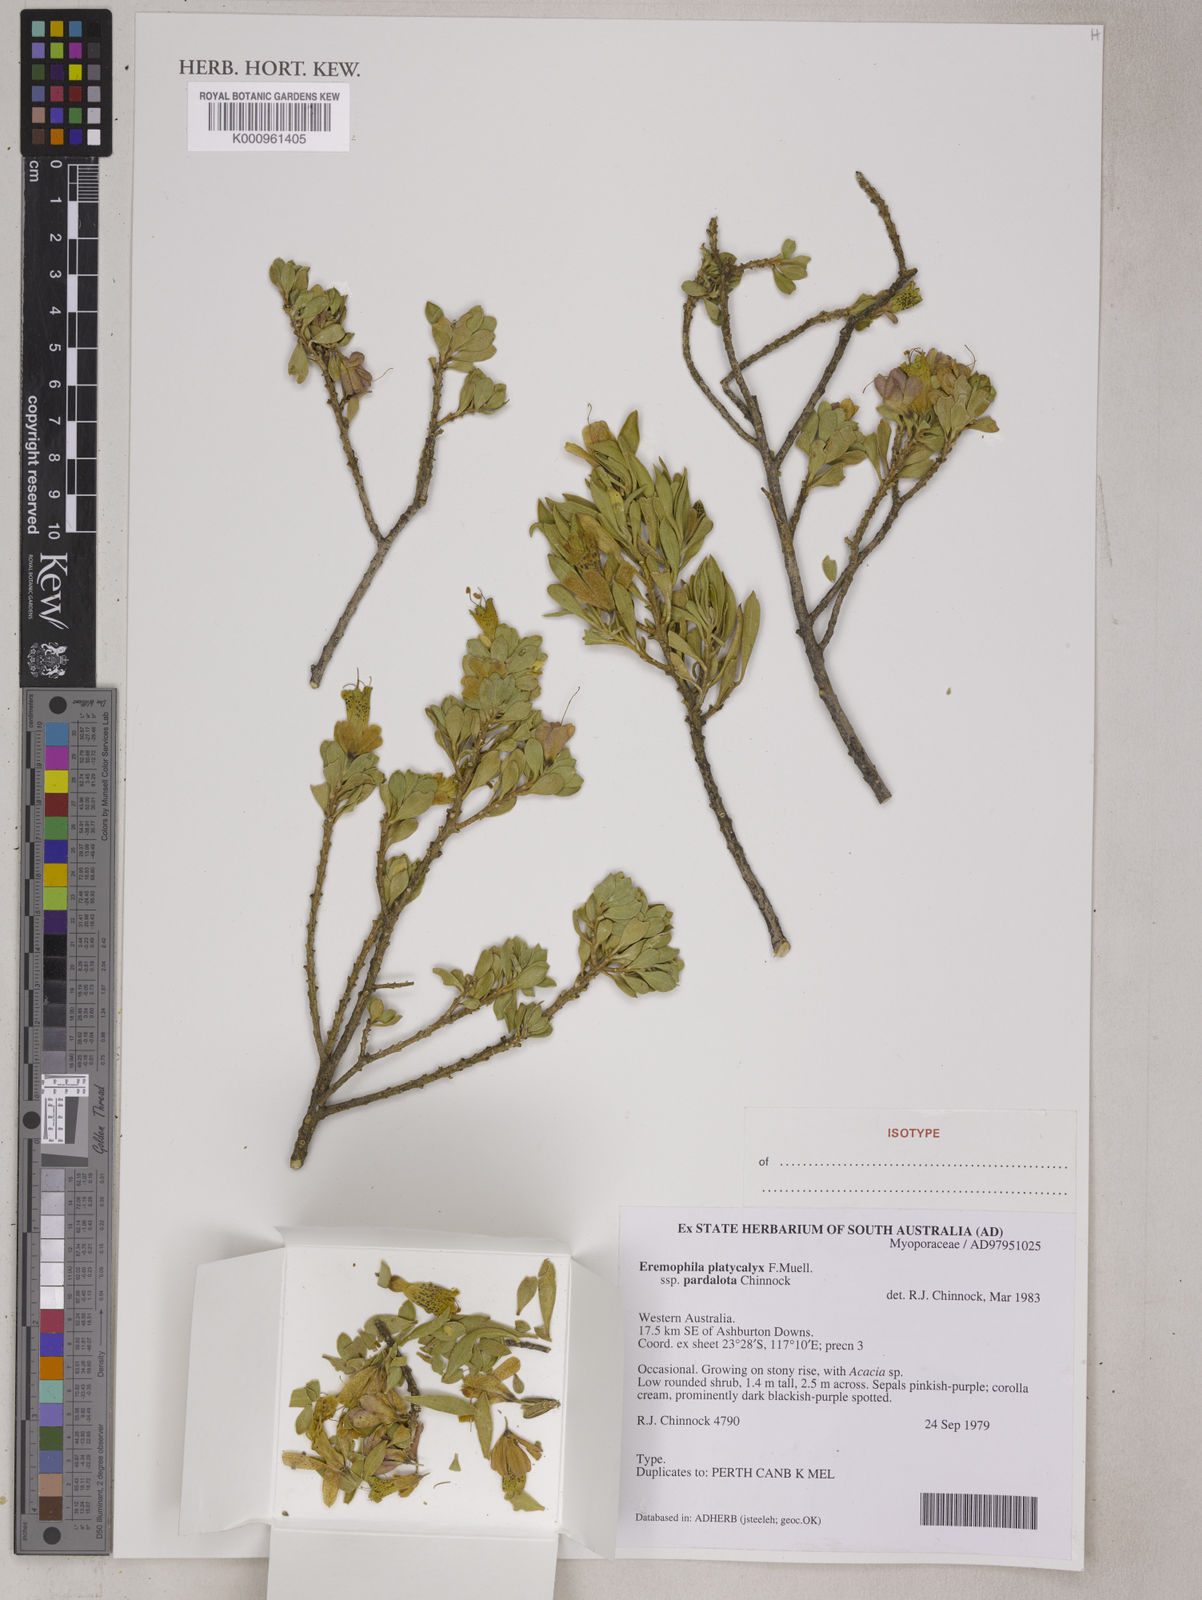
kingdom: Plantae
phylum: Tracheophyta
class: Magnoliopsida
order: Lamiales
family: Scrophulariaceae
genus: Eremophila
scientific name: Eremophila platycalyx
